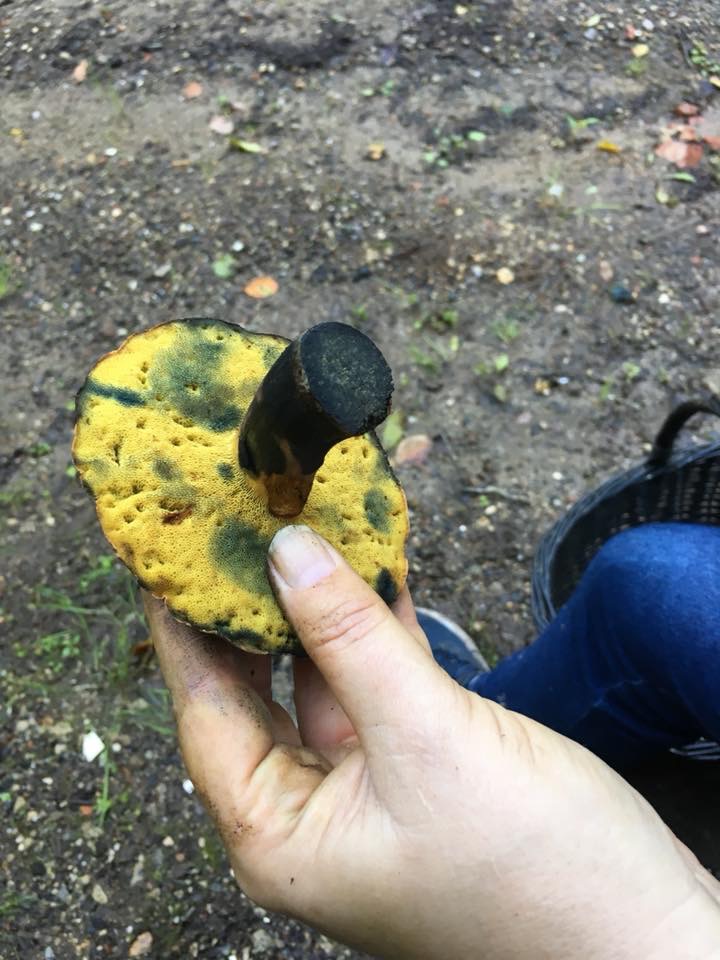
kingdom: Fungi
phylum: Basidiomycota
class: Agaricomycetes
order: Boletales
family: Boletaceae
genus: Cyanoboletus
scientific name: Cyanoboletus pulverulentus
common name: sortblånende rørhat
